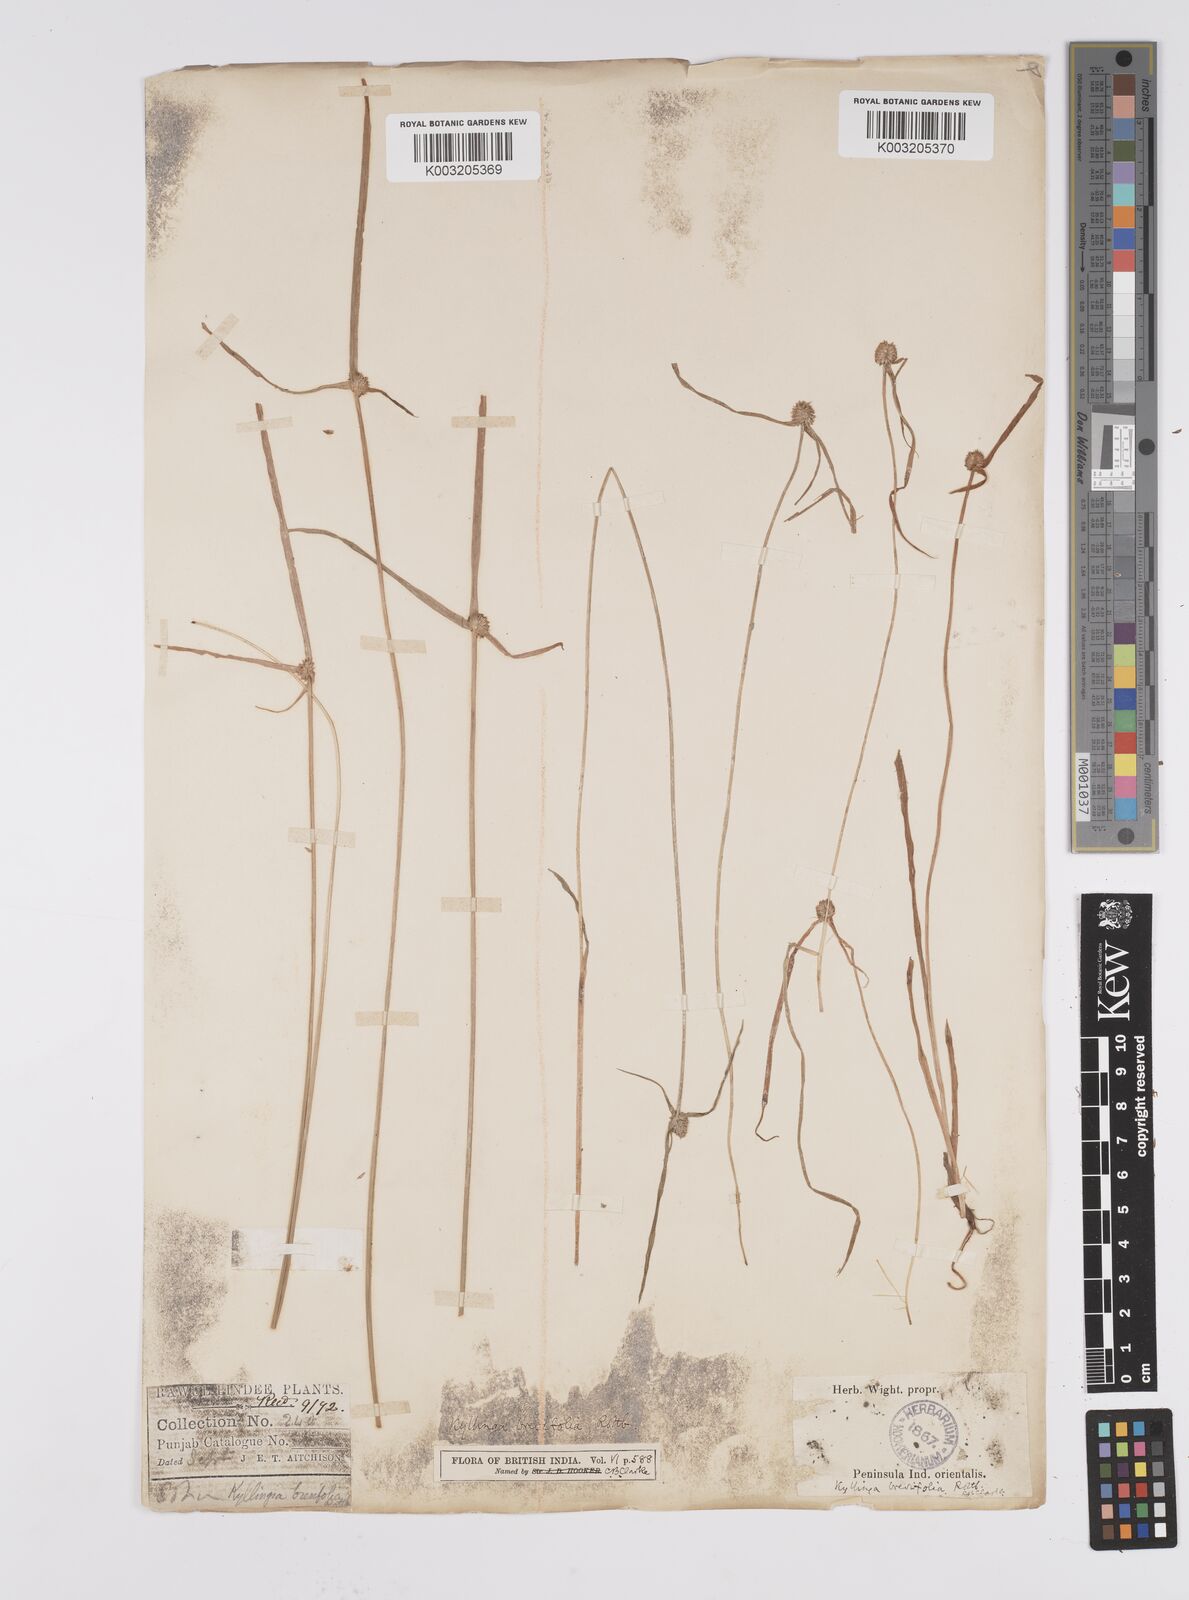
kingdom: Plantae
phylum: Tracheophyta
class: Liliopsida
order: Poales
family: Cyperaceae
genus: Cyperus
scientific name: Cyperus brevifolius
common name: Globe kyllinga
